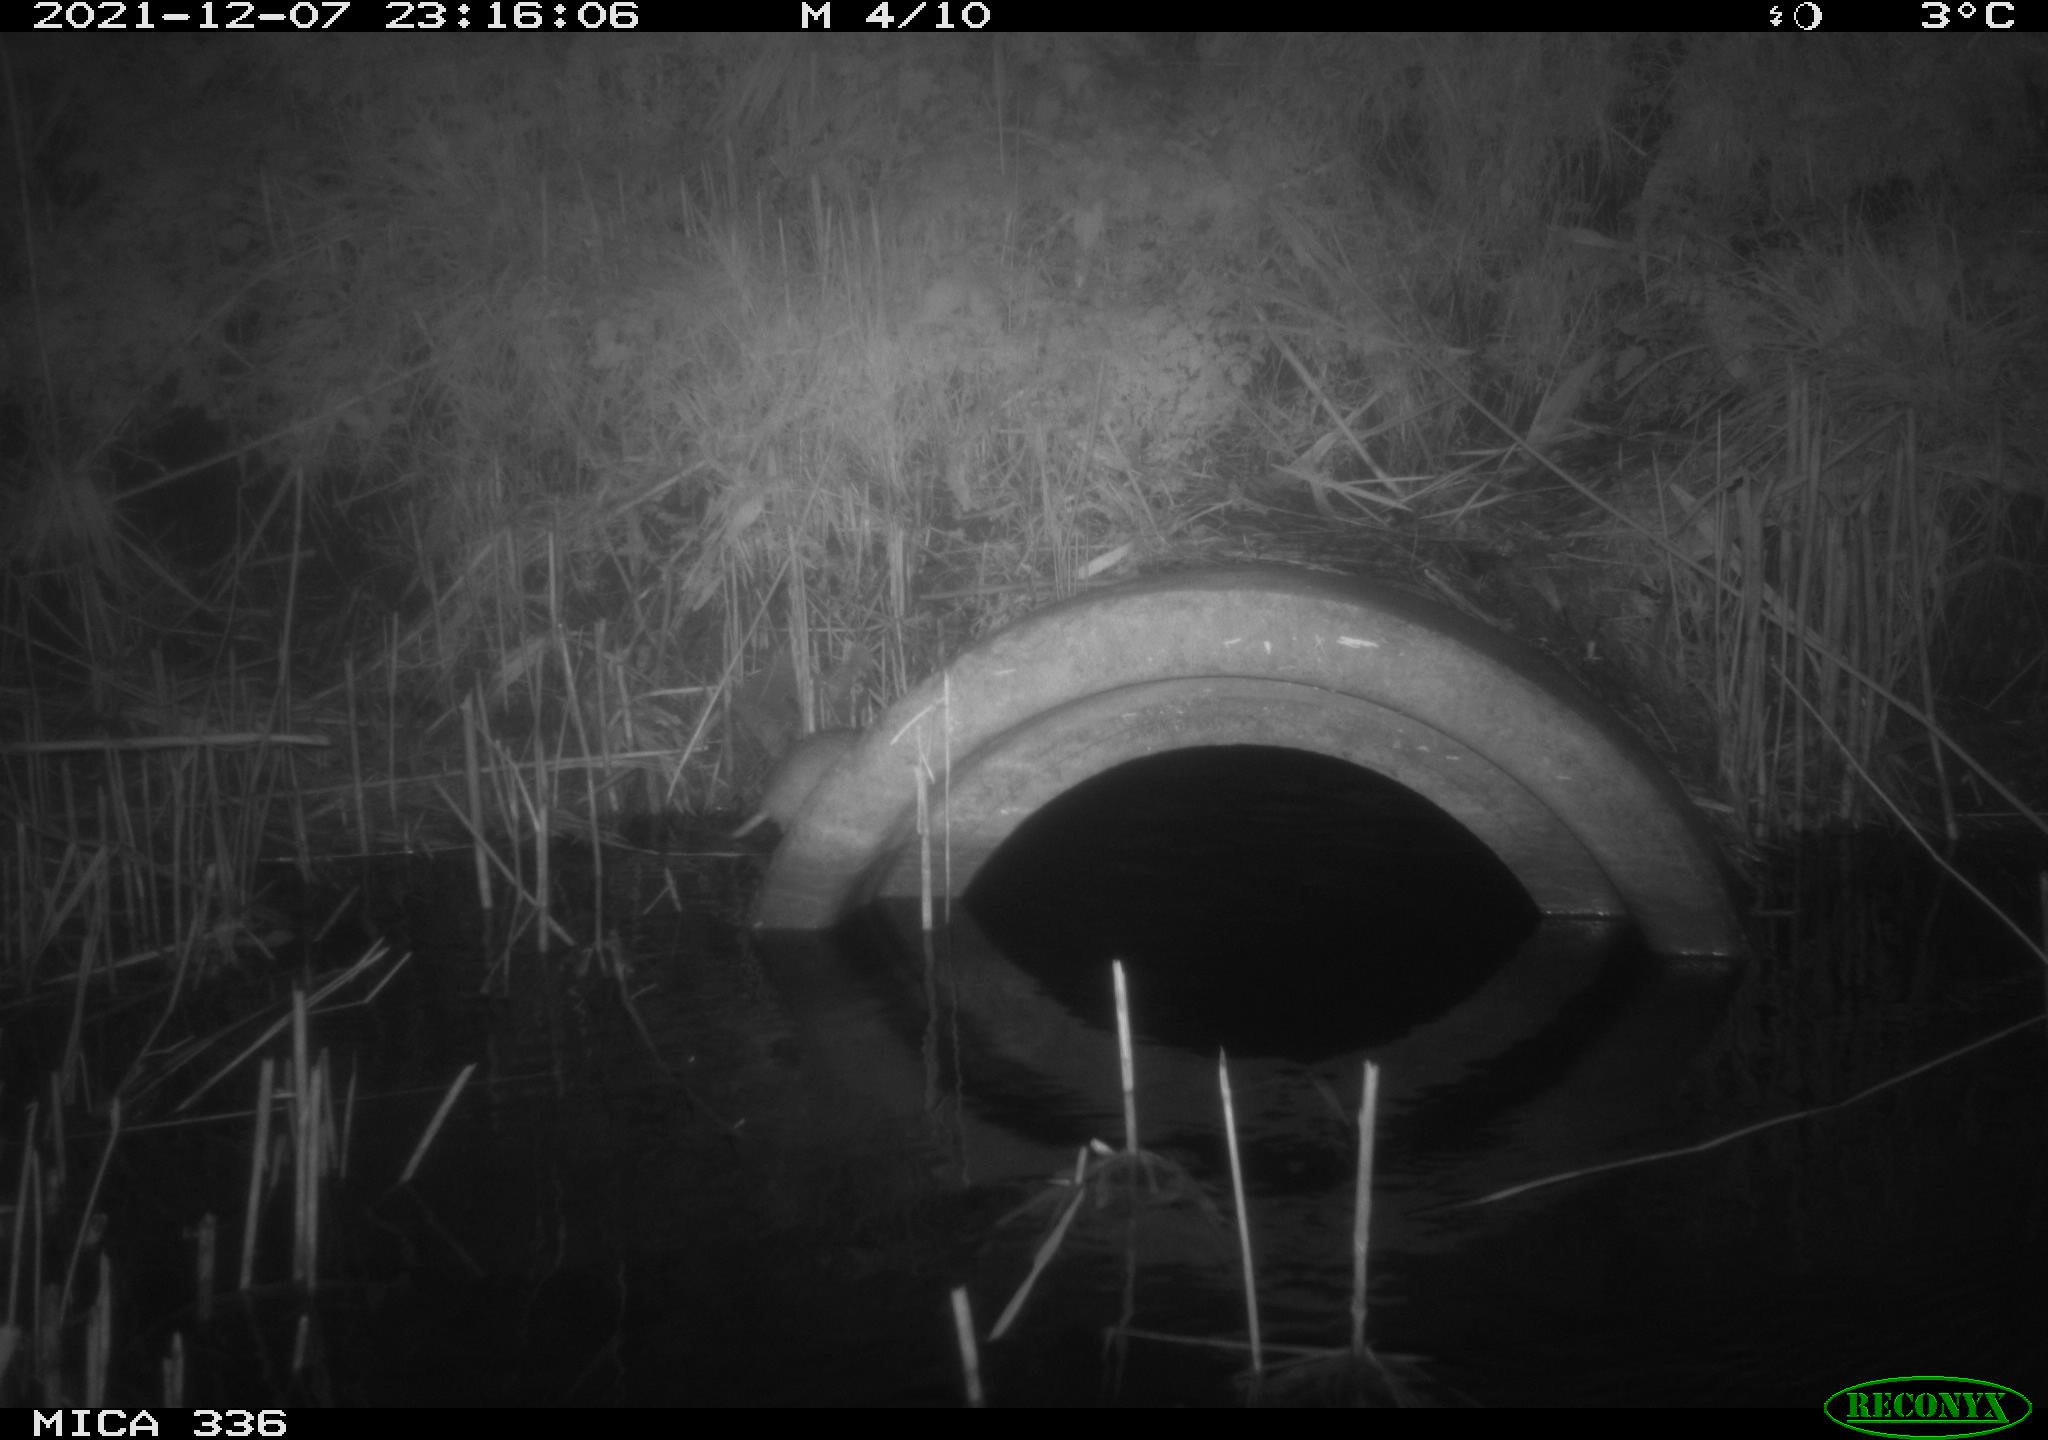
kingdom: Animalia
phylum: Chordata
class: Mammalia
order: Rodentia
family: Muridae
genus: Rattus
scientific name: Rattus norvegicus
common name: Brown rat
